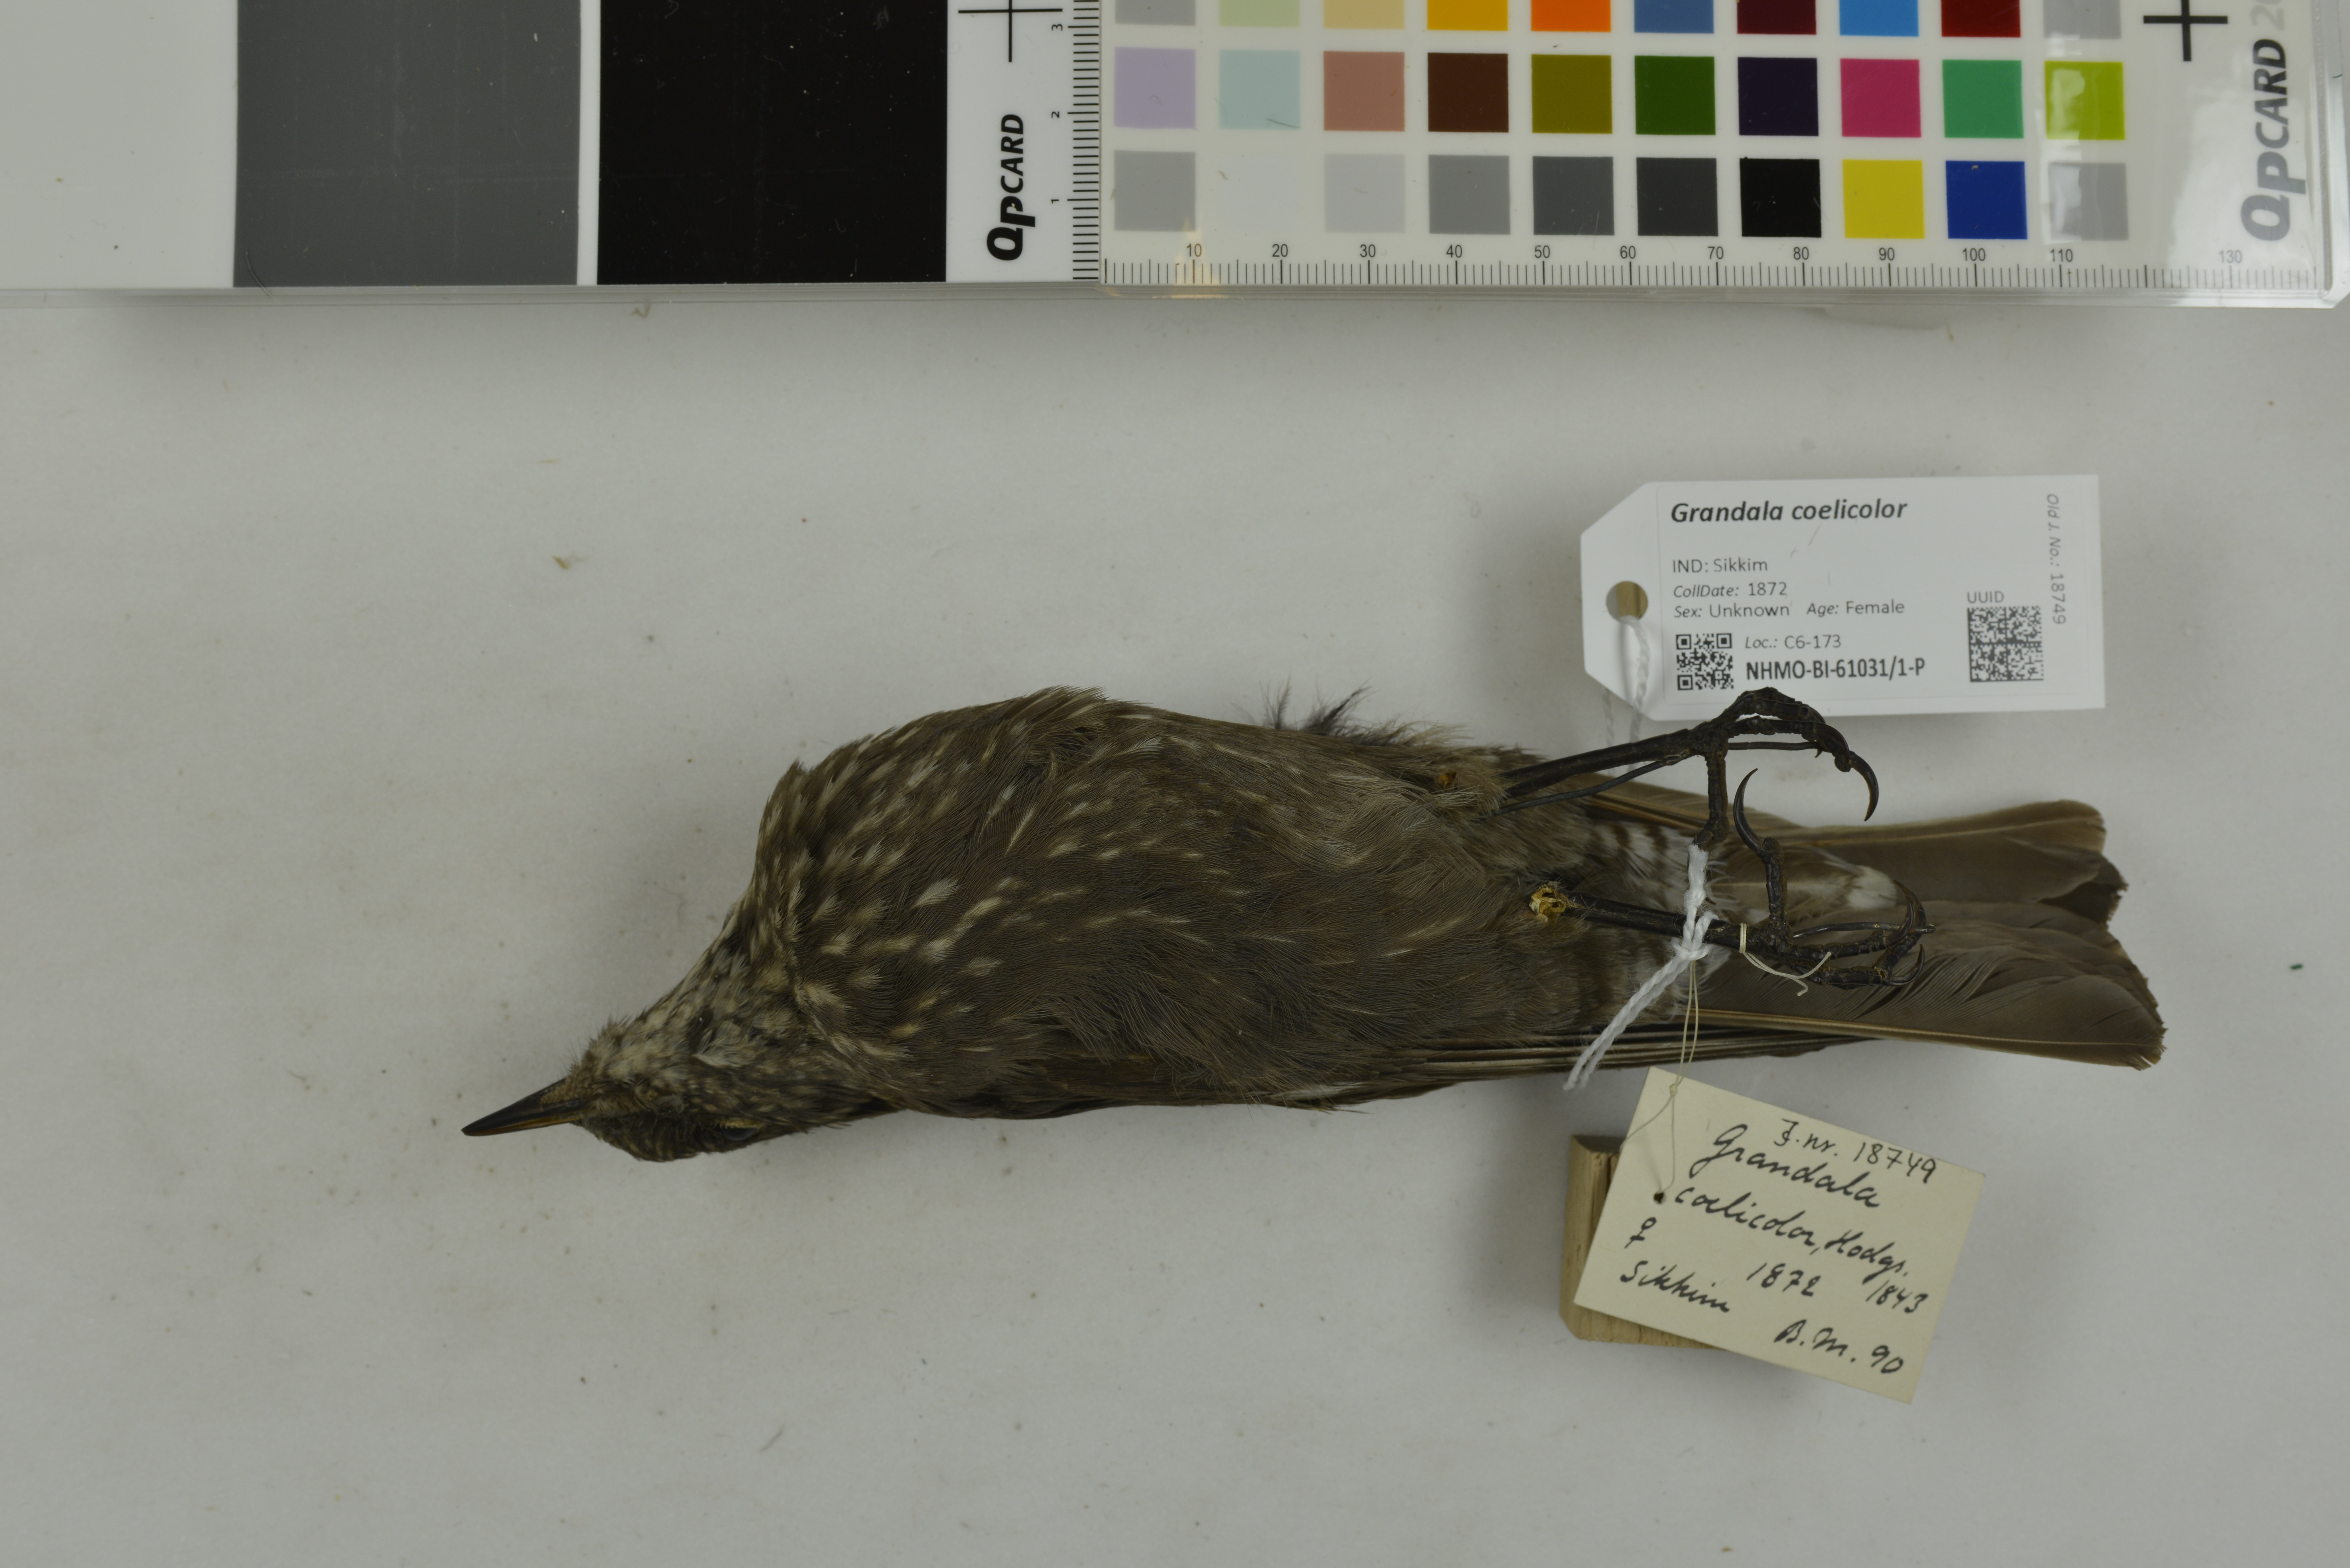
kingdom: Animalia
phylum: Chordata
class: Aves
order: Passeriformes
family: Muscicapidae
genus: Grandala
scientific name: Grandala coelicolor
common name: Grandala
